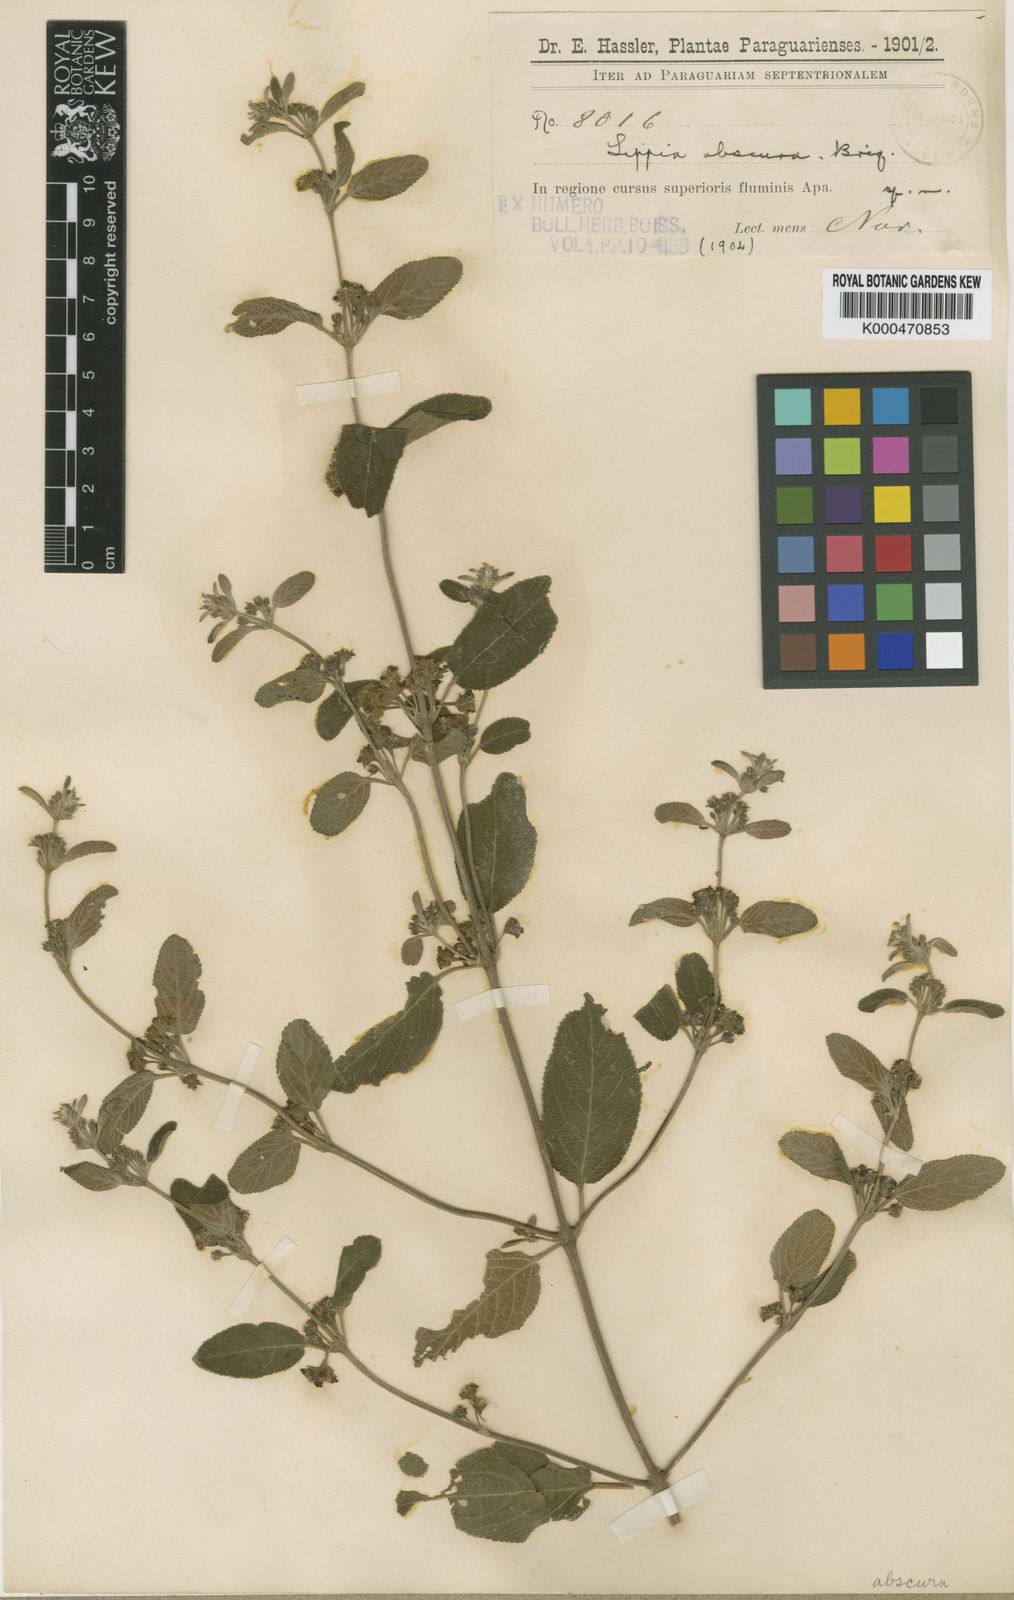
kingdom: Plantae
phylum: Tracheophyta
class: Magnoliopsida
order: Lamiales
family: Verbenaceae
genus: Lippia
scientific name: Lippia origanoides
